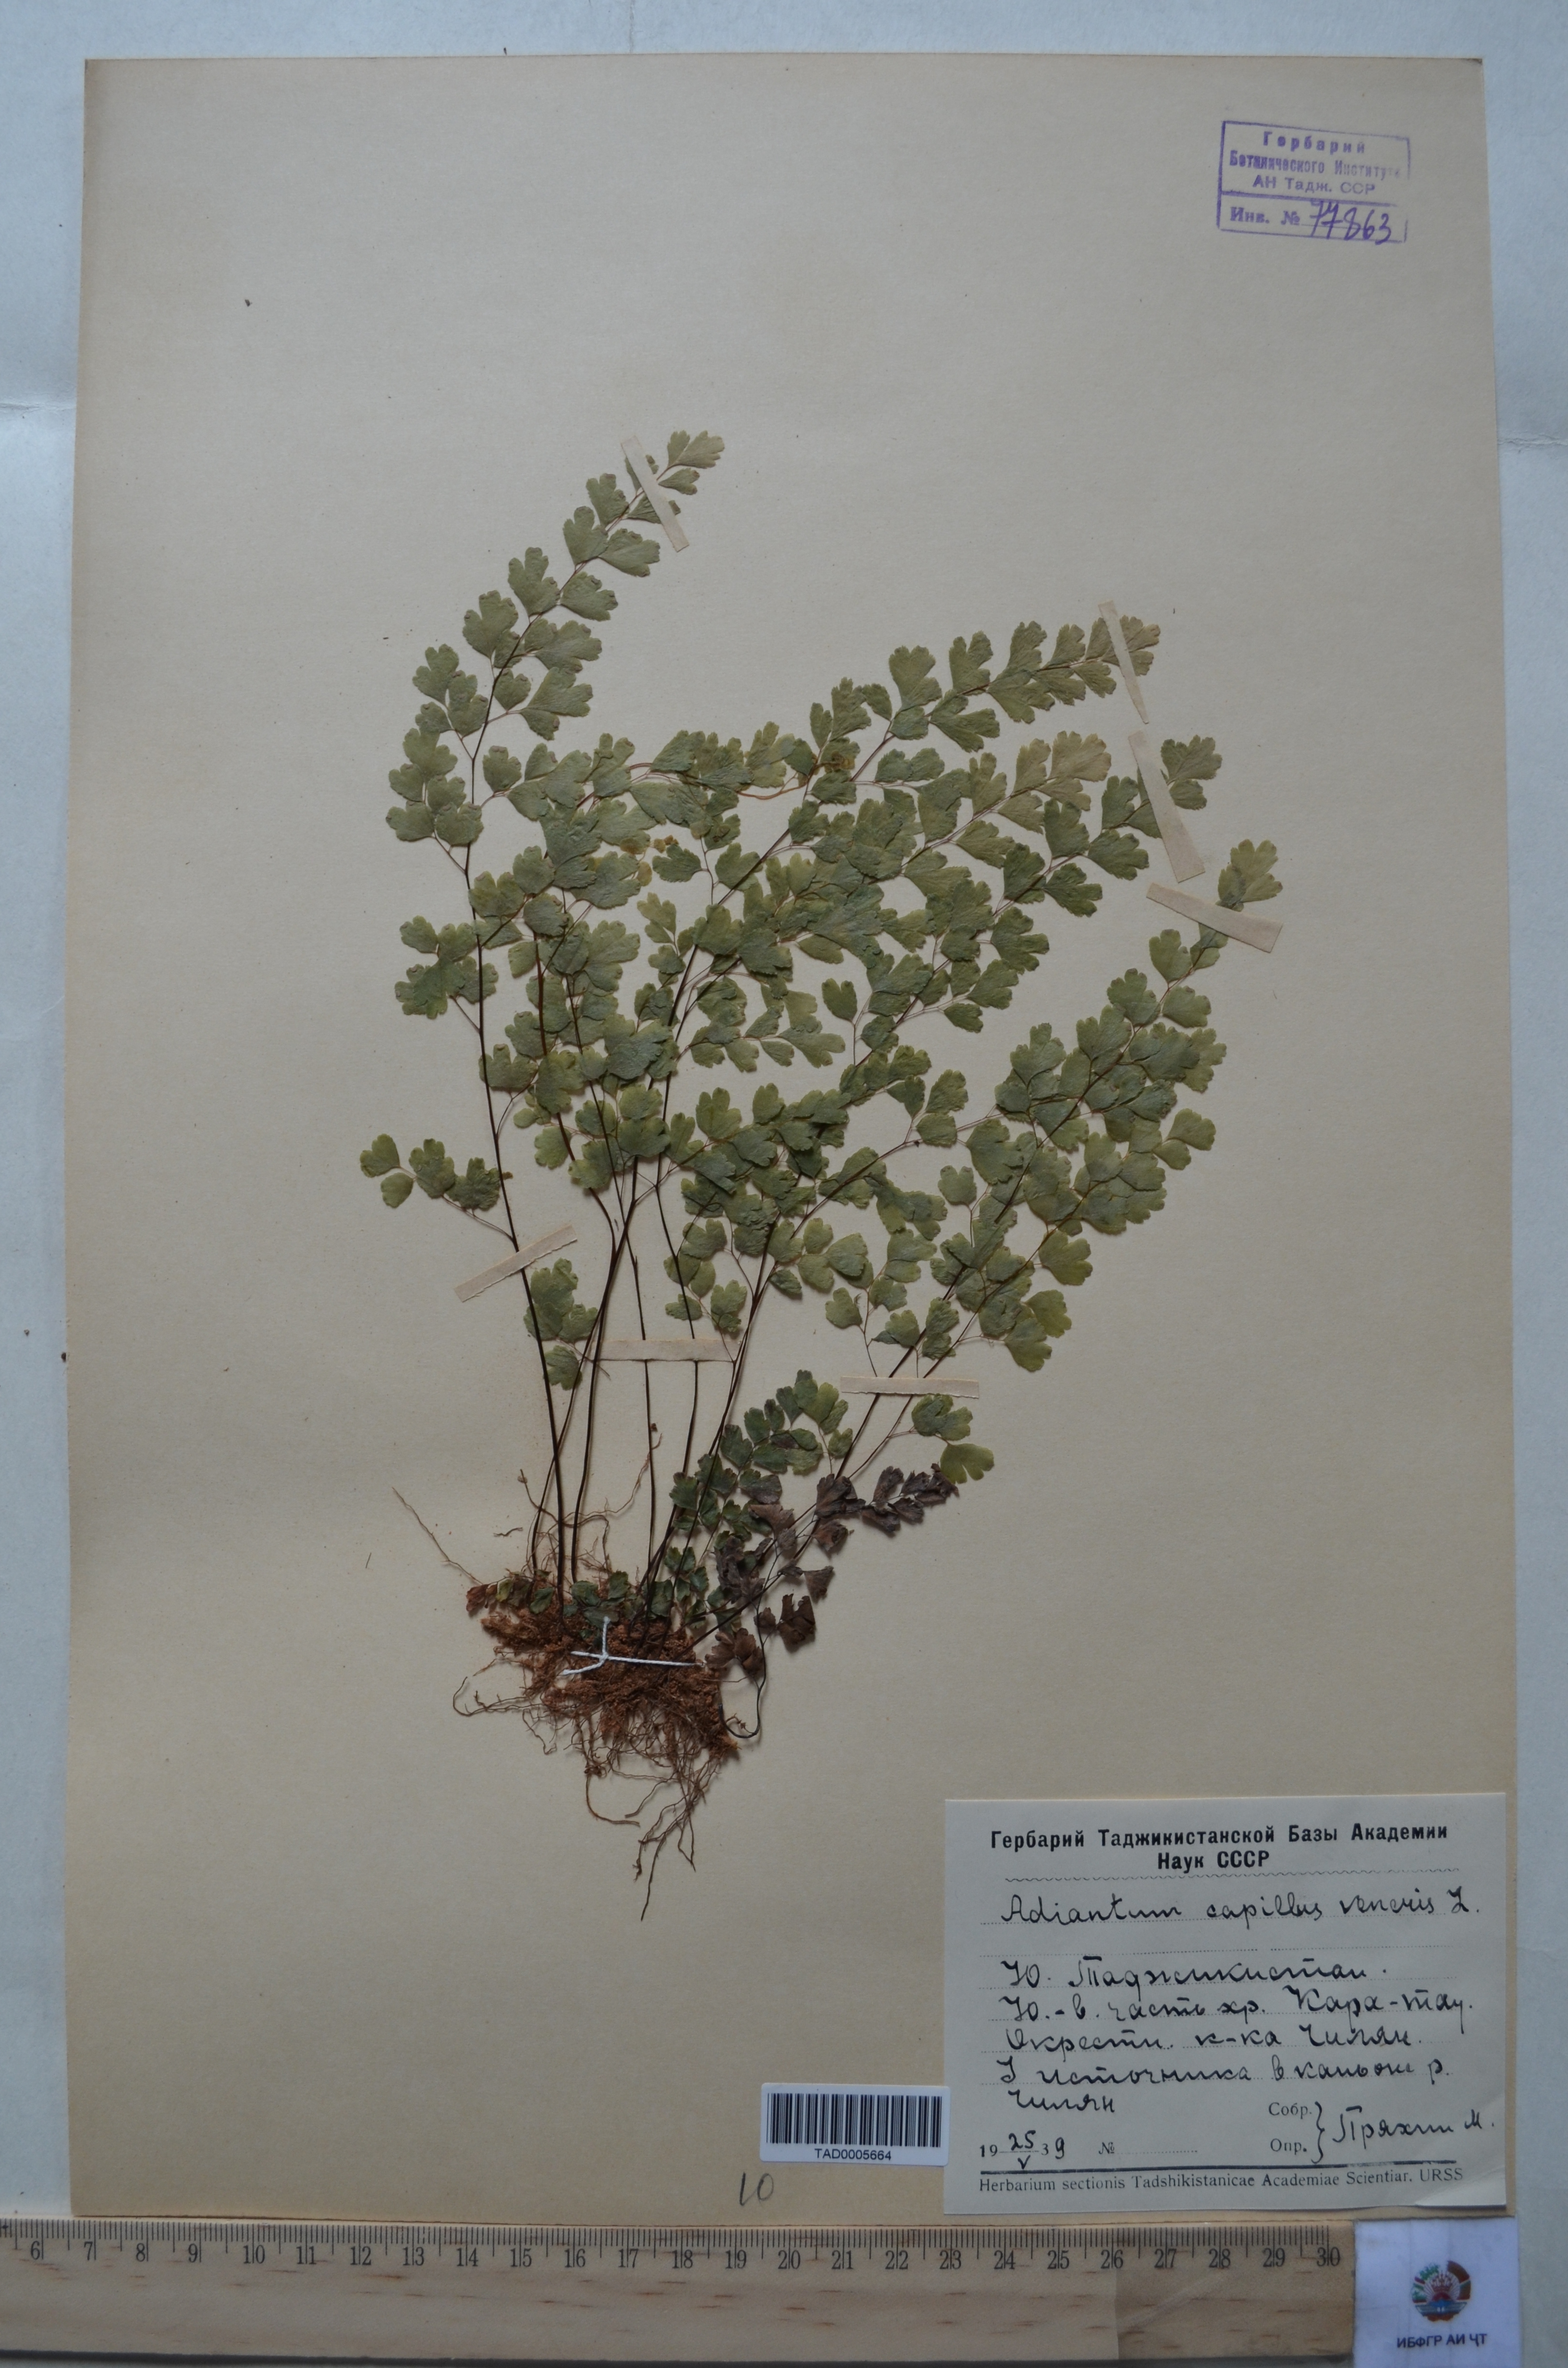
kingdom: Plantae
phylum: Tracheophyta
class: Polypodiopsida
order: Polypodiales
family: Pteridaceae
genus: Adiantum
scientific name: Adiantum capillus-veneris
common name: Maidenhair fern
